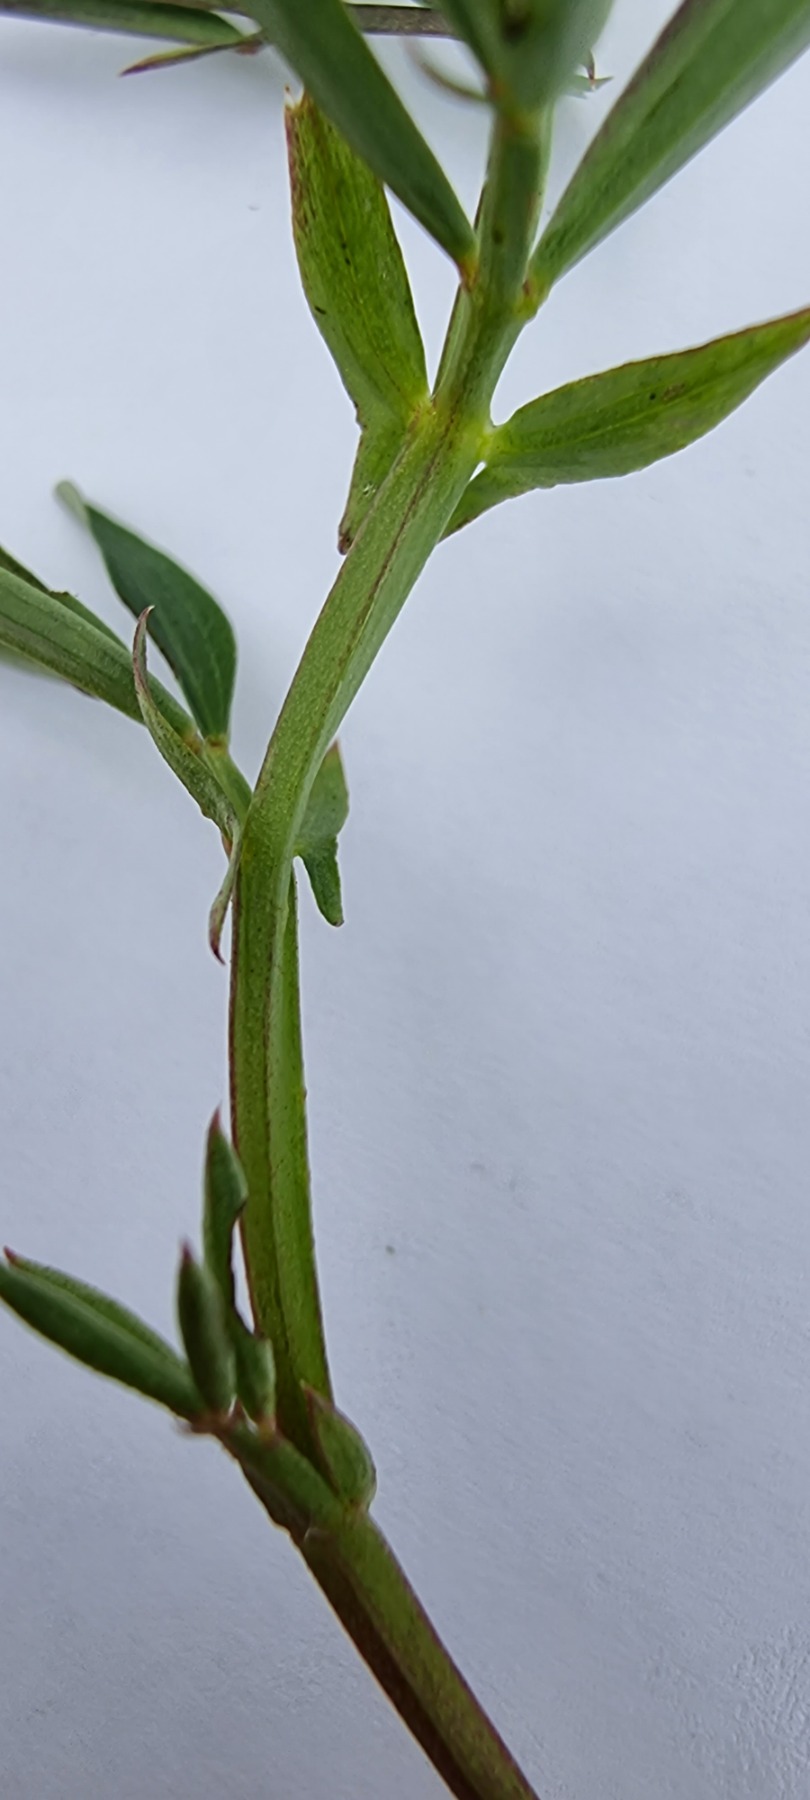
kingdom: Plantae
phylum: Tracheophyta
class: Magnoliopsida
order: Fabales
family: Fabaceae
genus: Lathyrus
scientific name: Lathyrus linifolius
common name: Krat-fladbælg
